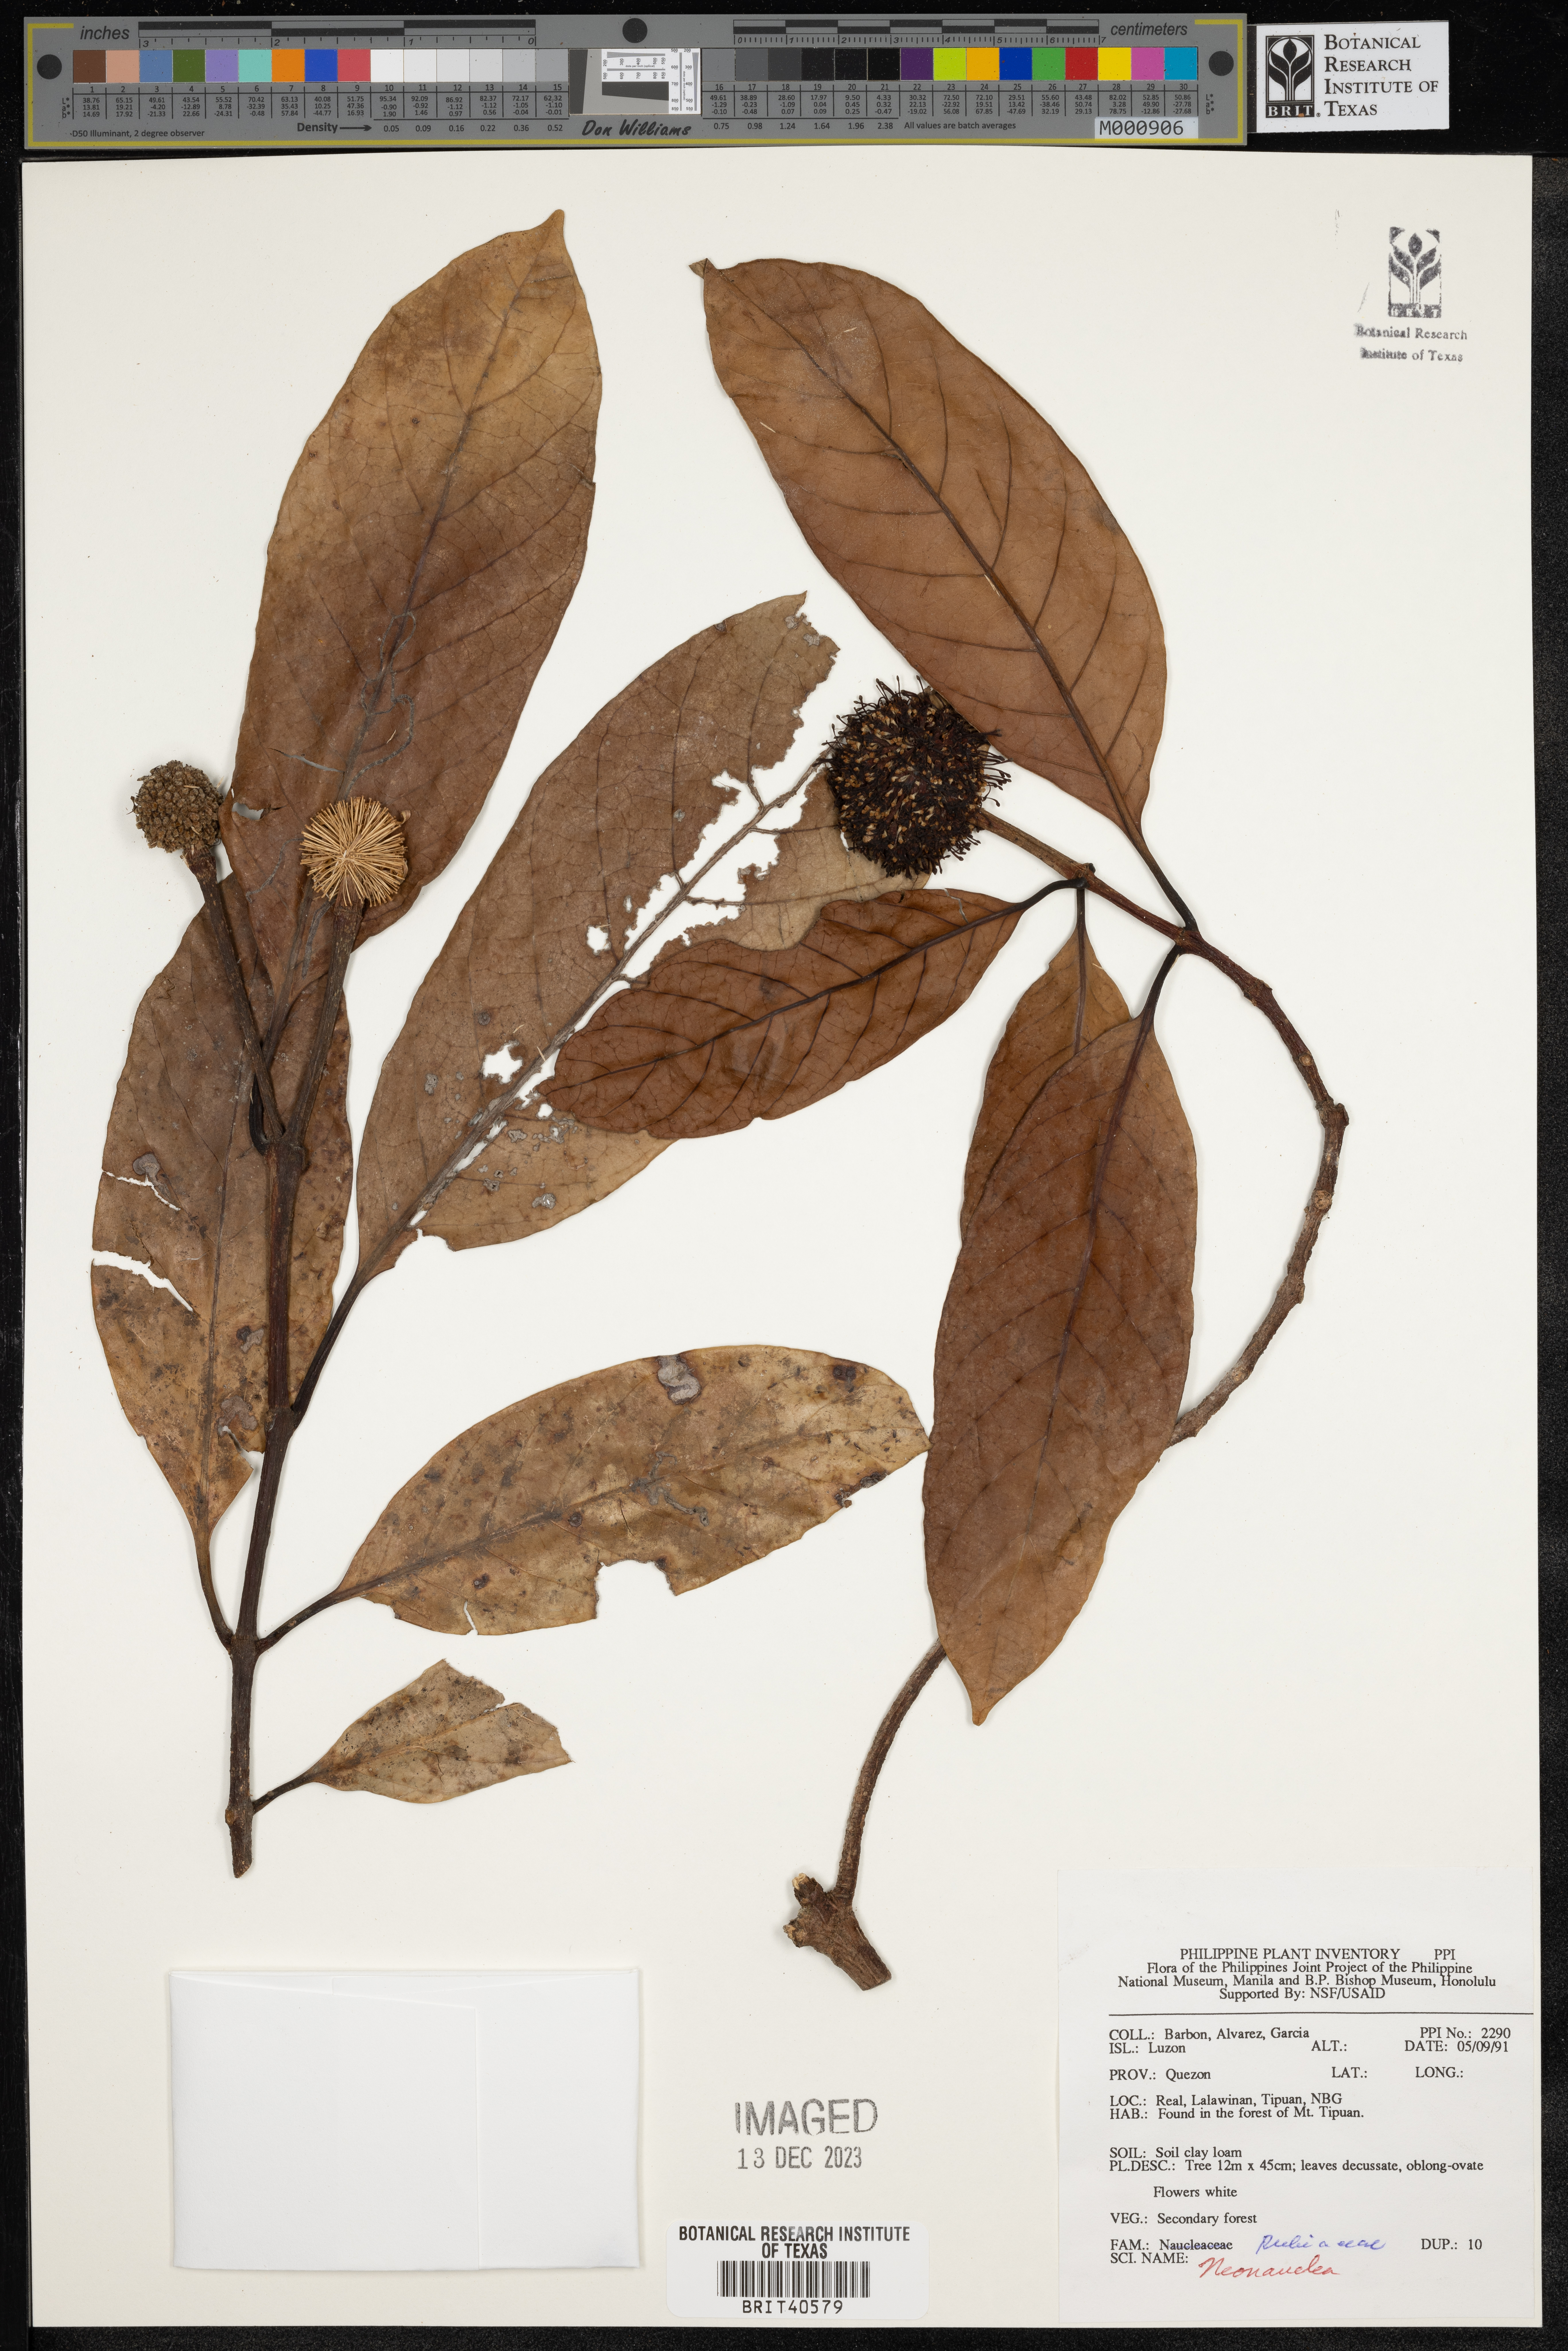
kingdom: Plantae
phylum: Tracheophyta
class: Magnoliopsida
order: Gentianales
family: Rubiaceae
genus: Neonauclea
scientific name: Neonauclea
